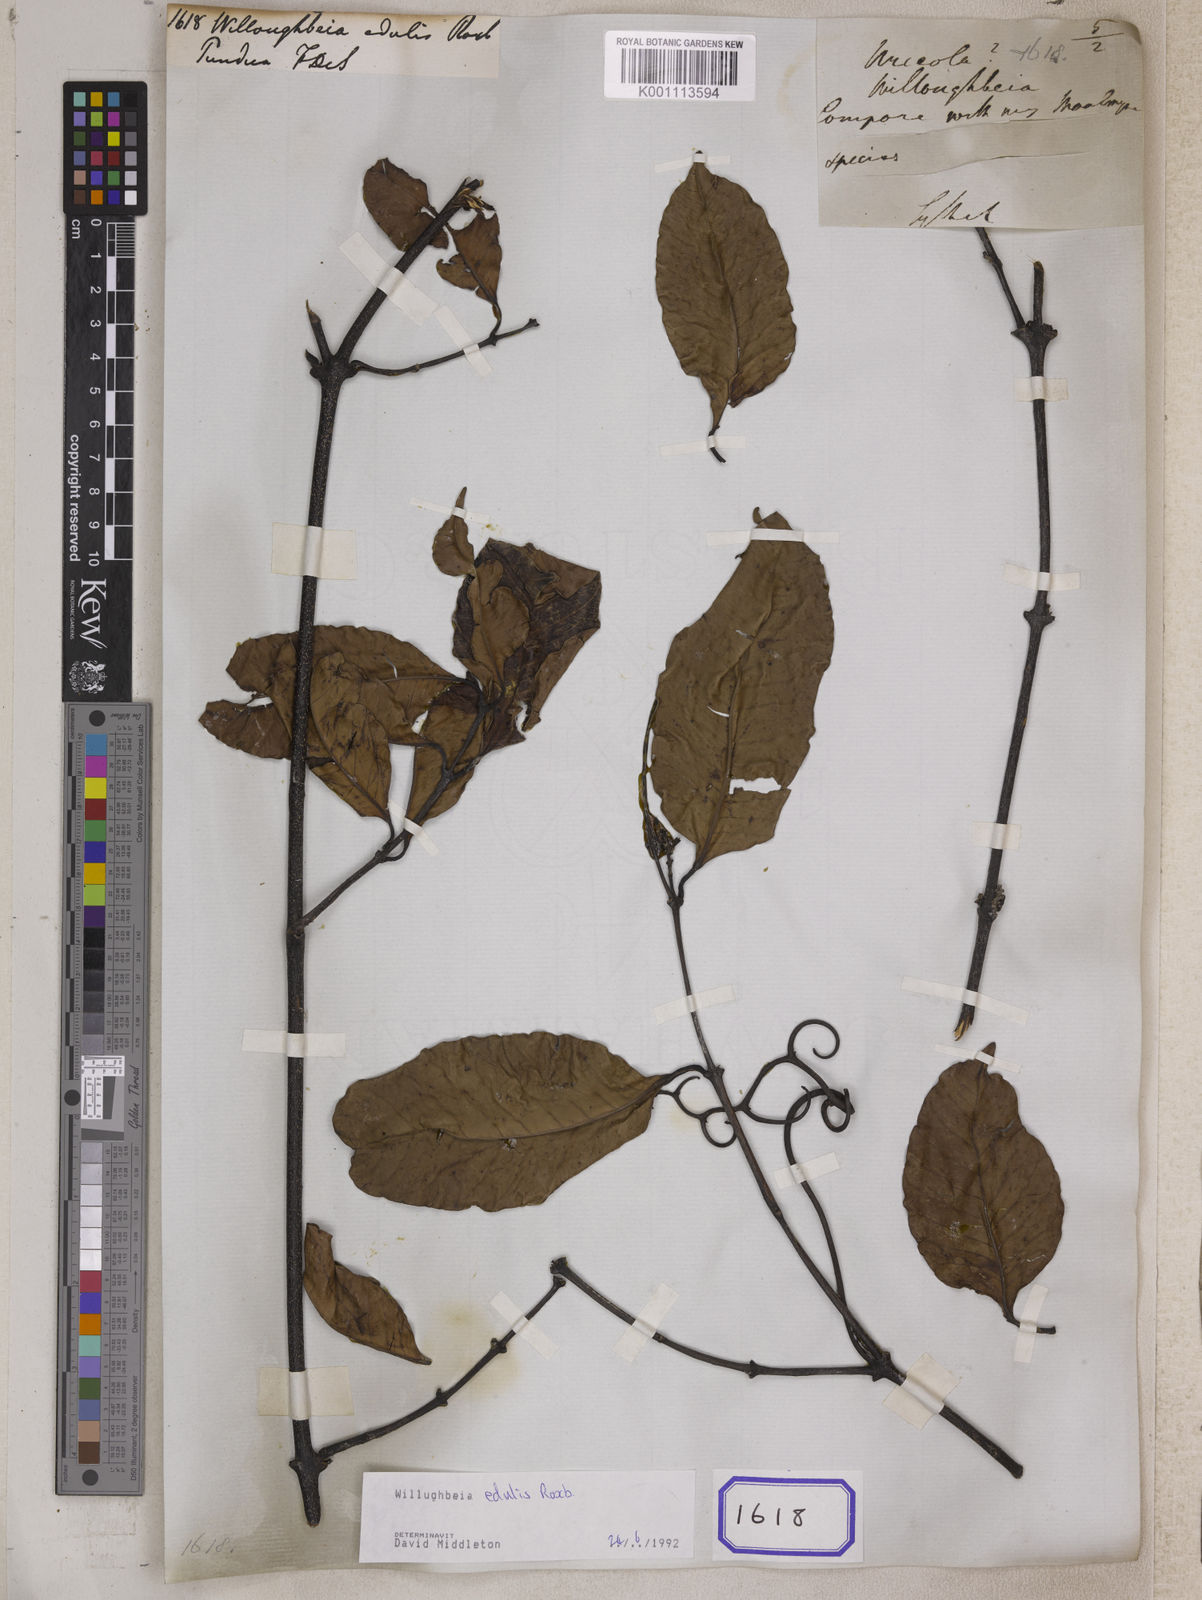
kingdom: Plantae
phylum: Tracheophyta
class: Magnoliopsida
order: Gentianales
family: Apocynaceae
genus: Willughbeia
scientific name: Willughbeia edulis
